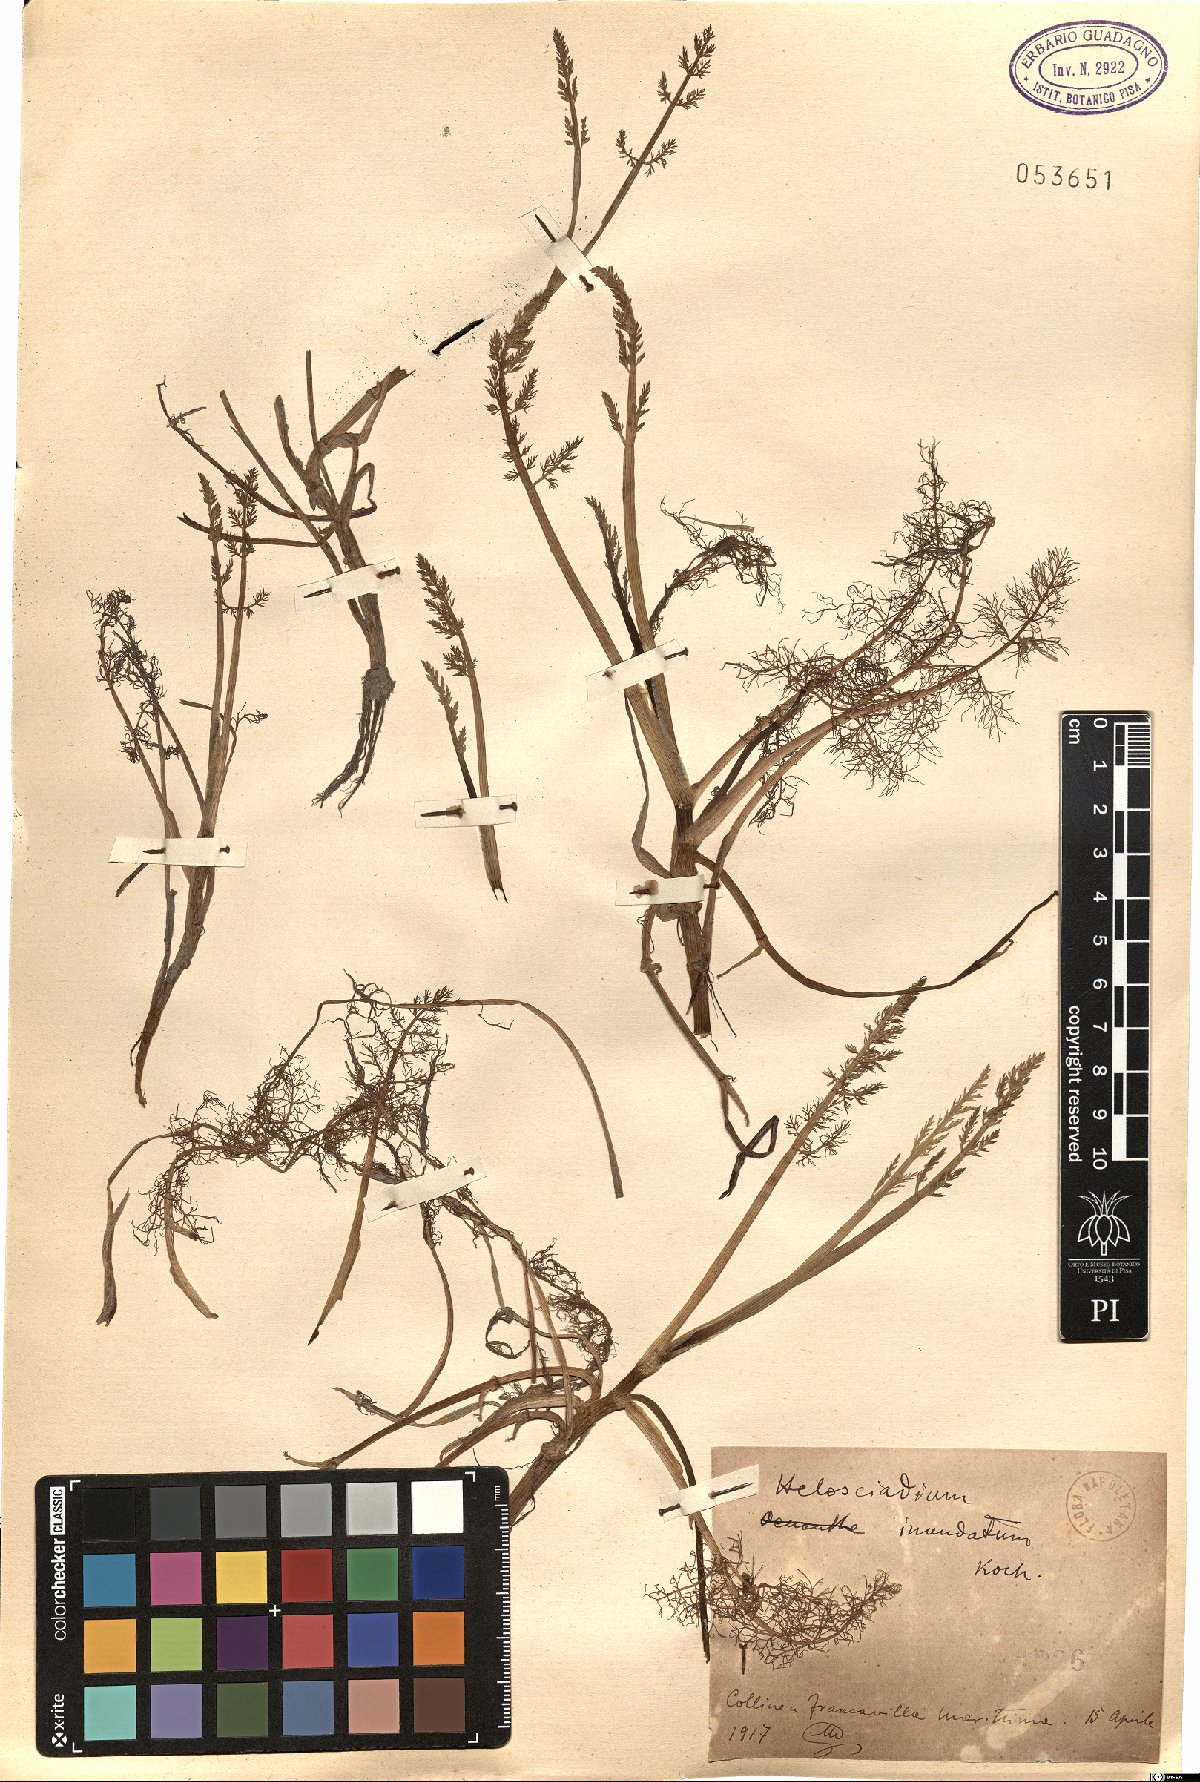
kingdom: Plantae
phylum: Tracheophyta
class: Magnoliopsida
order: Apiales
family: Apiaceae
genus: Helosciadium
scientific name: Helosciadium inundatum
